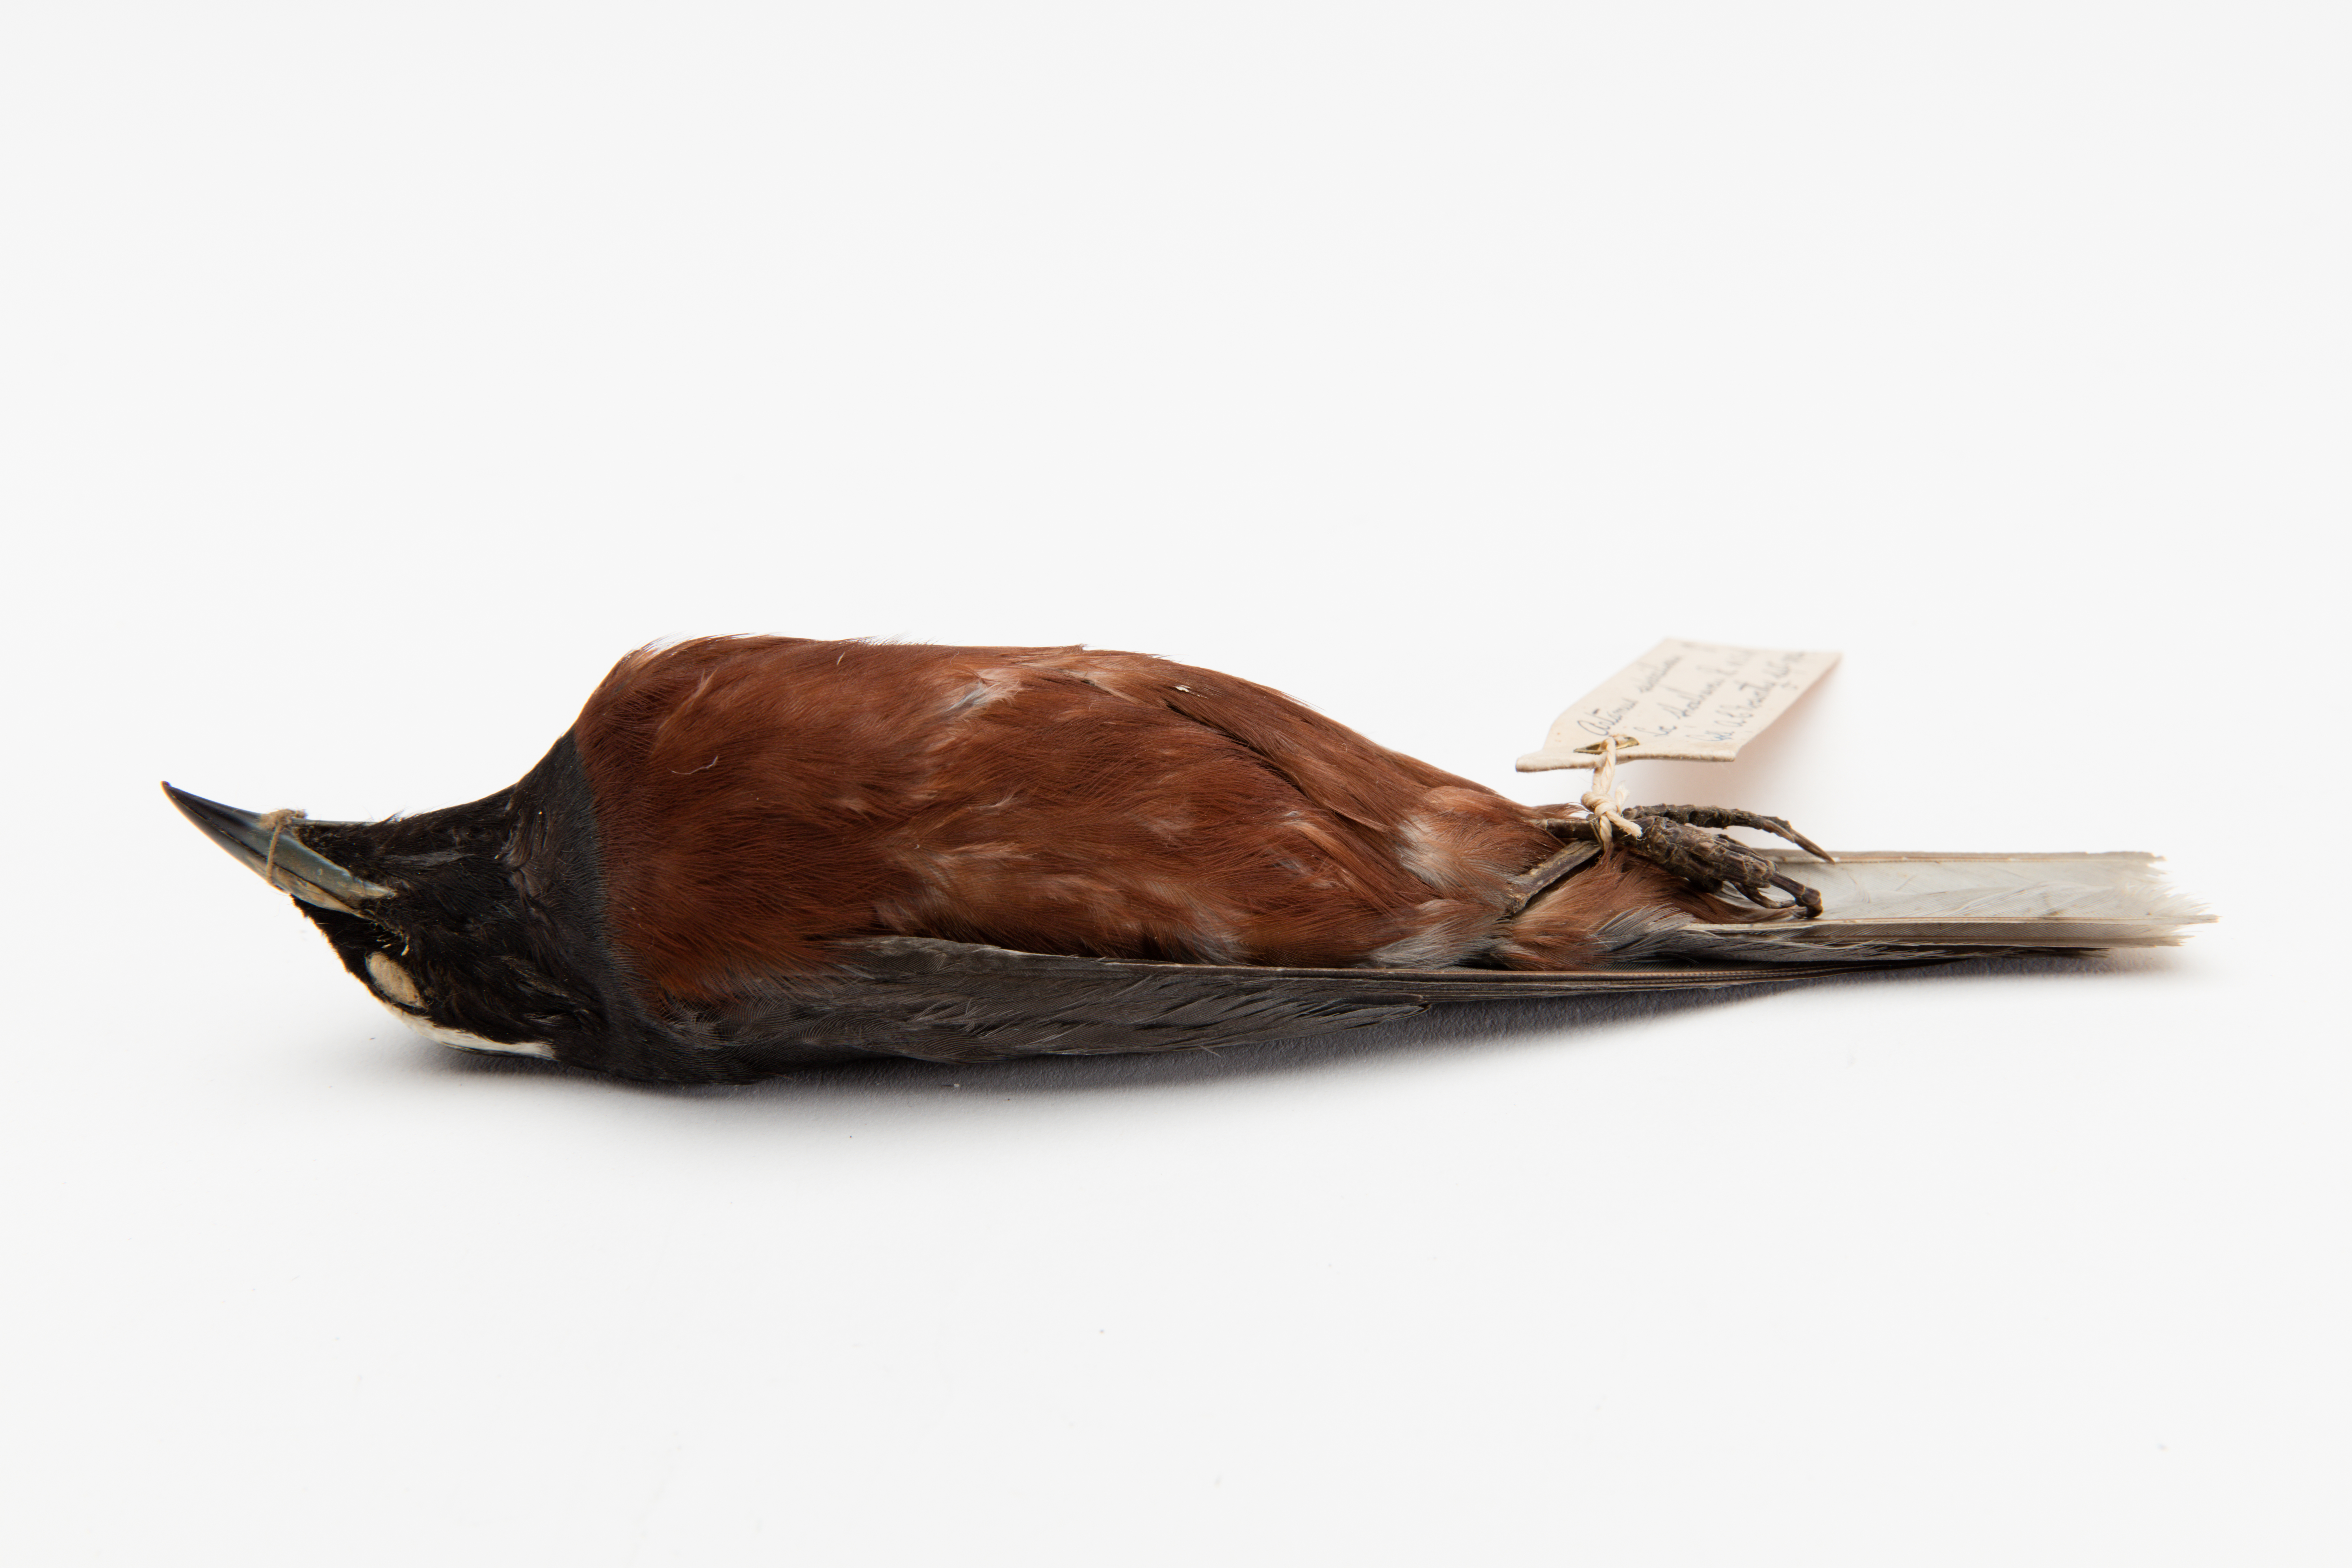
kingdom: Animalia
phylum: Chordata
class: Aves
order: Passeriformes
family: Artamidae
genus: Artamus
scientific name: Artamus superciliosus
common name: White-browed woodswallow
